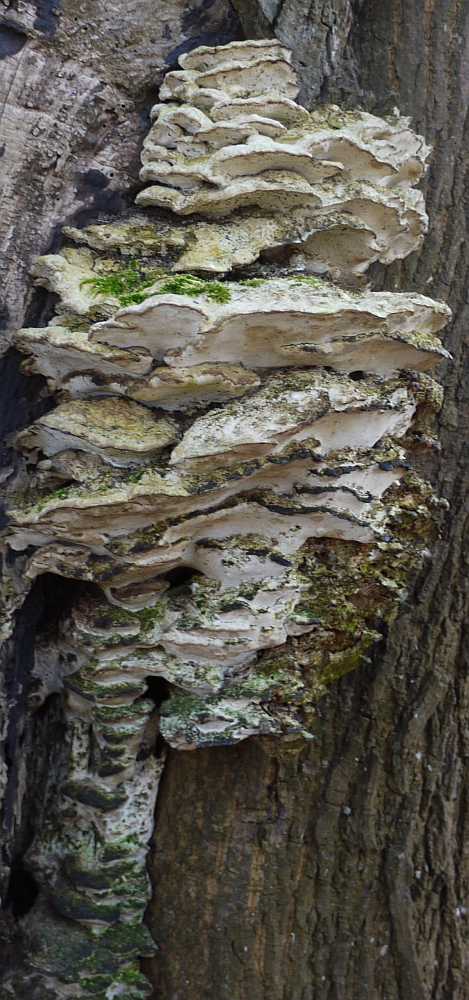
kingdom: Fungi
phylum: Basidiomycota
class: Agaricomycetes
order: Hymenochaetales
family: Oxyporaceae
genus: Oxyporus
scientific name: Oxyporus populinus
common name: sammenvokset trylleporesvamp
